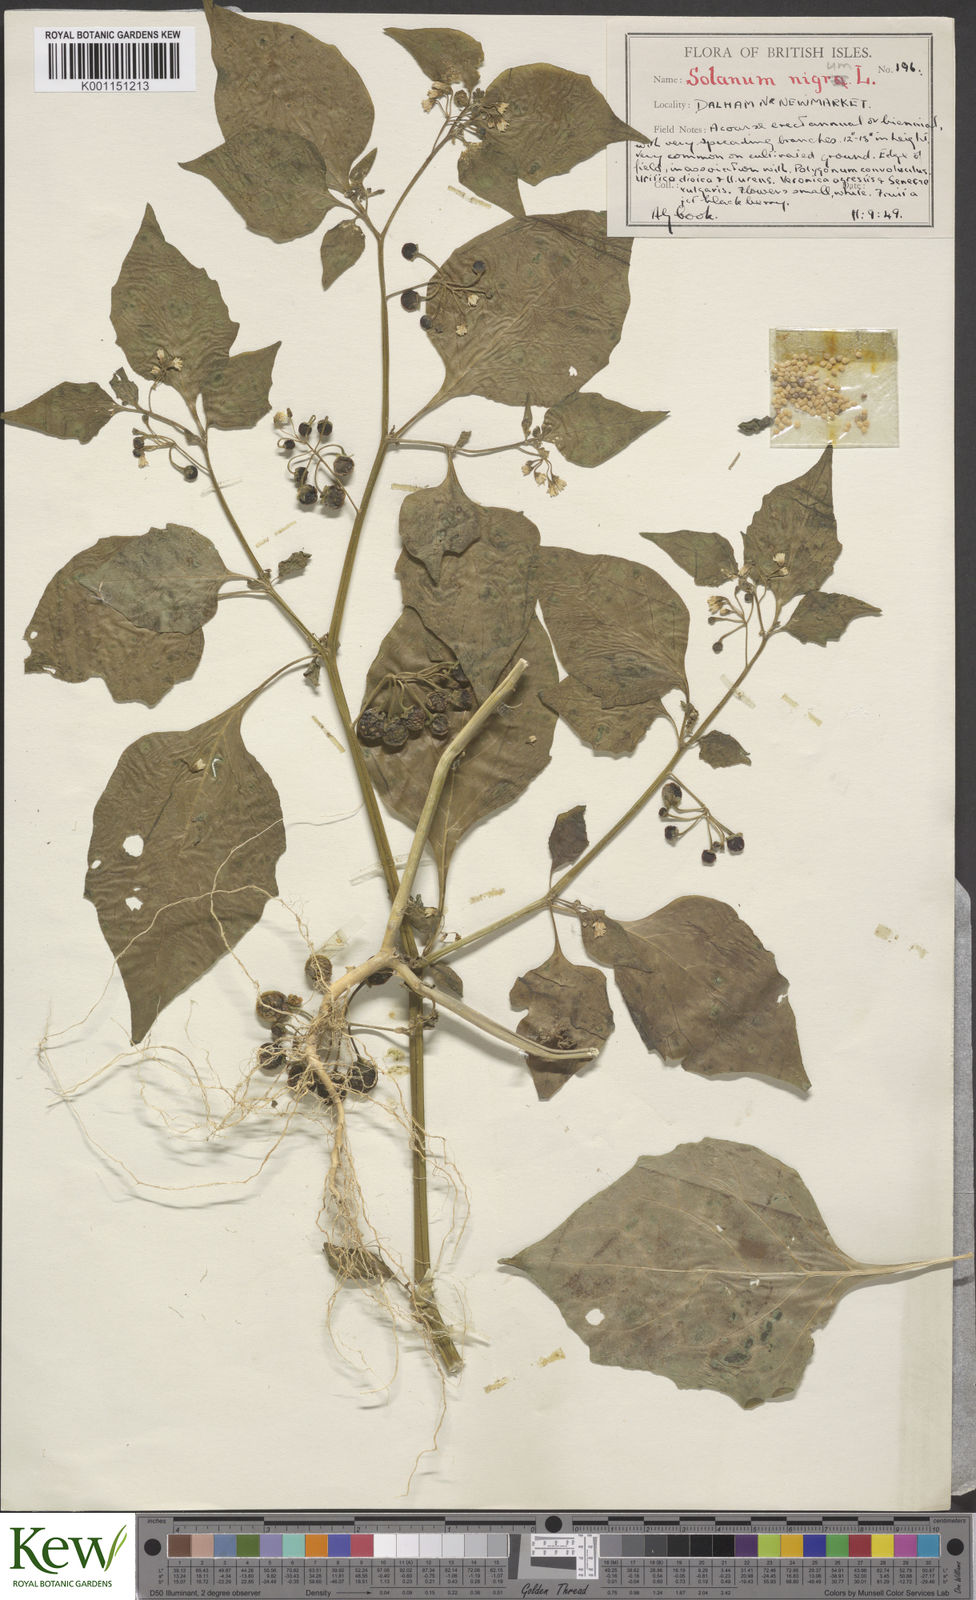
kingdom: Plantae
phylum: Tracheophyta
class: Magnoliopsida
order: Solanales
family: Solanaceae
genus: Solanum
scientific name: Solanum nigrum
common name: Black nightshade
